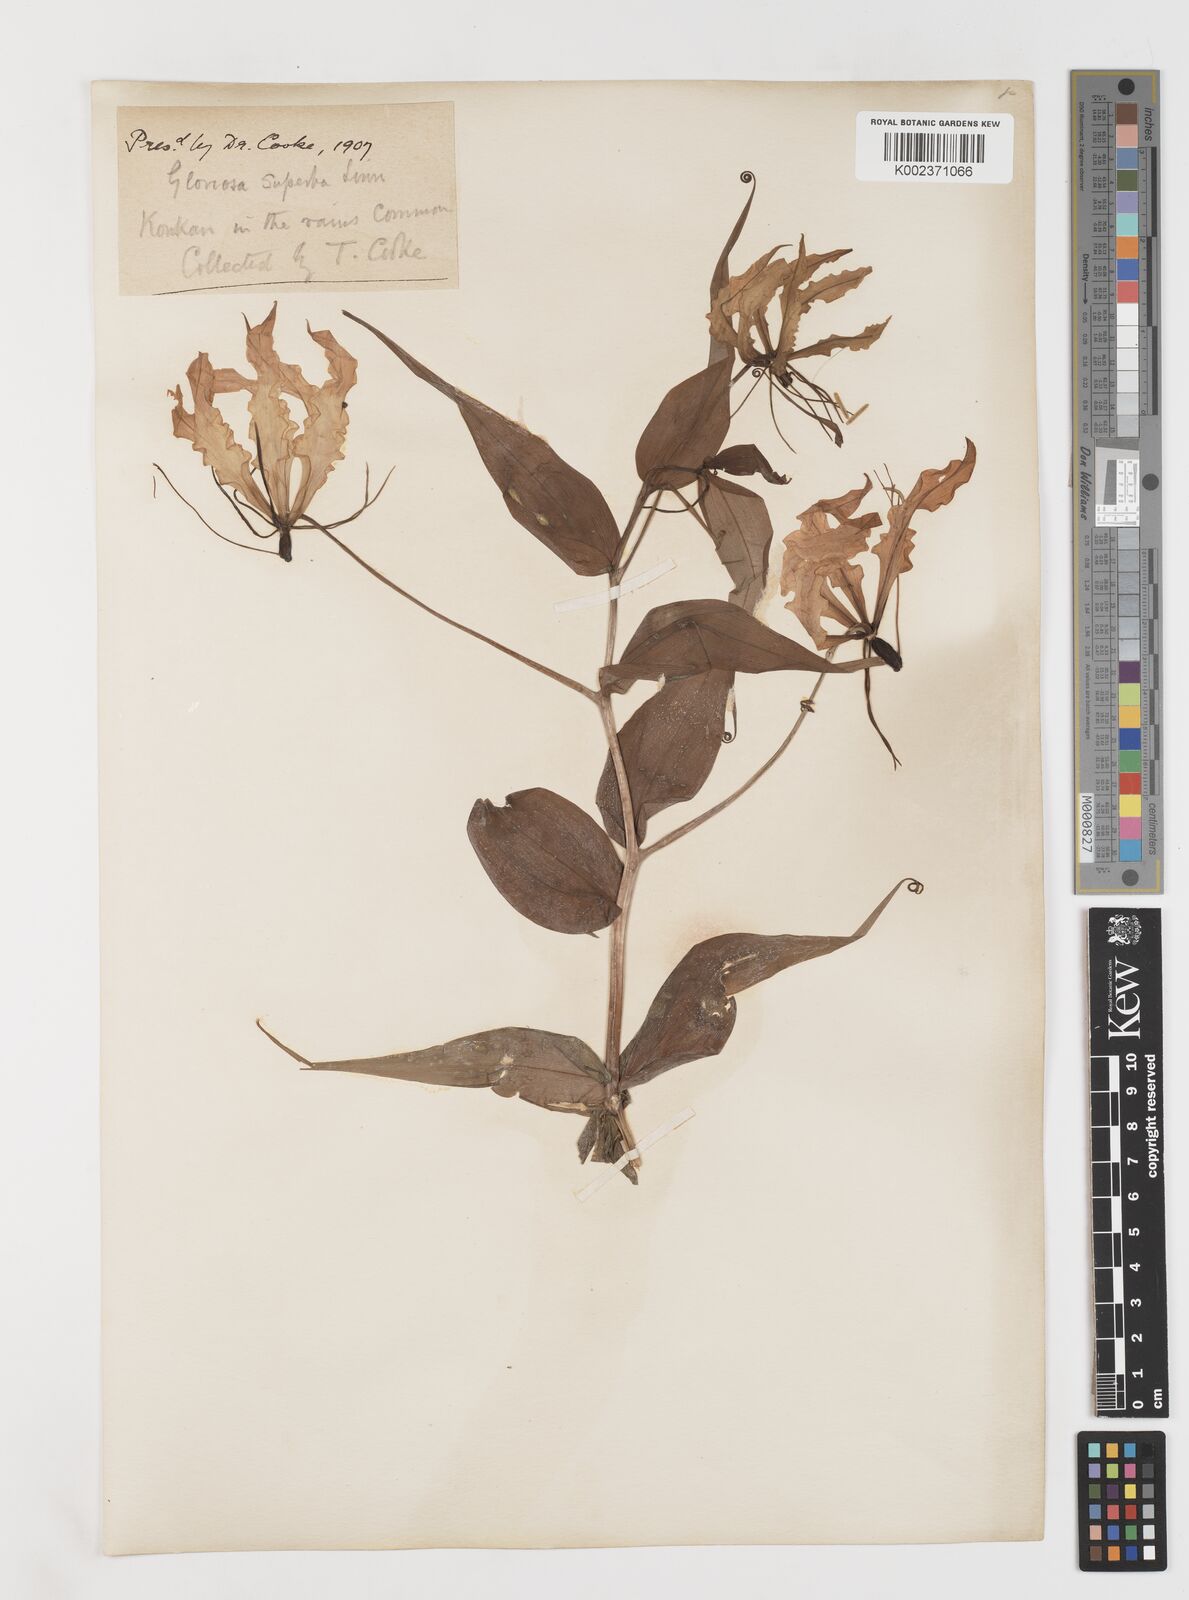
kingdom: Plantae
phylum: Tracheophyta
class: Liliopsida
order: Liliales
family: Colchicaceae
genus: Gloriosa
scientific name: Gloriosa superba
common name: Flame lily
